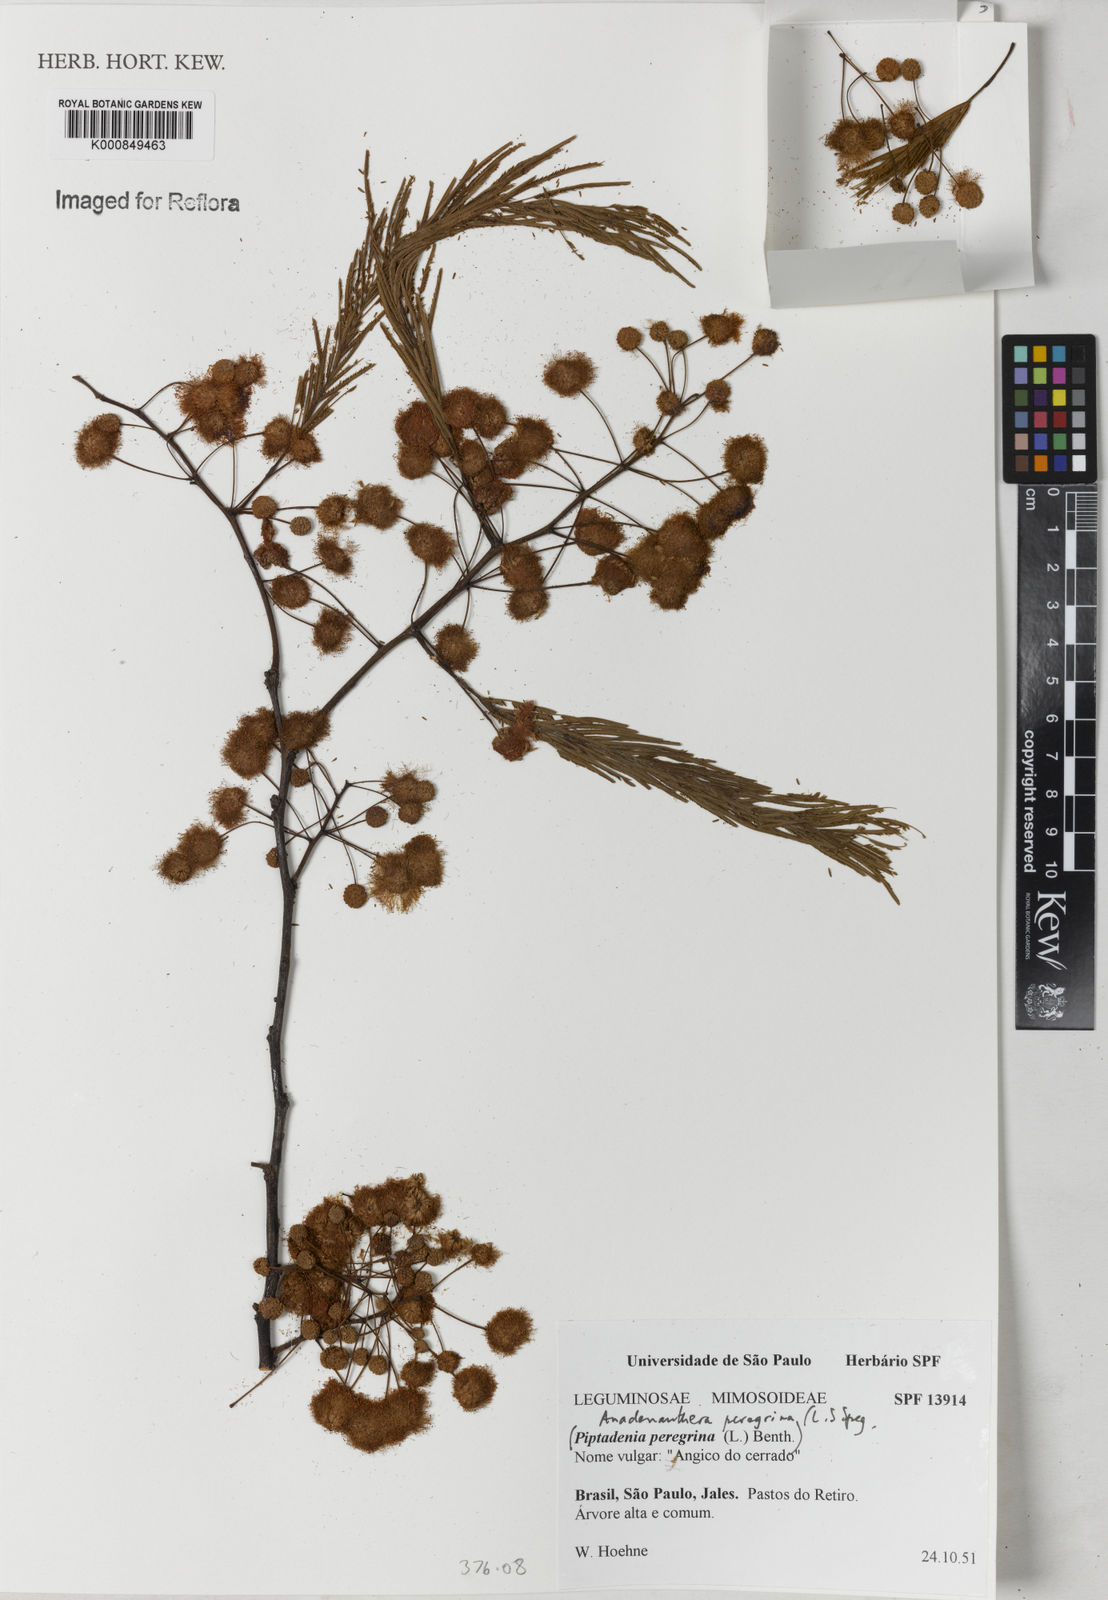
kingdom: Plantae
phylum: Tracheophyta
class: Magnoliopsida
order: Fabales
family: Fabaceae
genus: Anadenanthera
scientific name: Anadenanthera peregrina
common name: Cohoba
